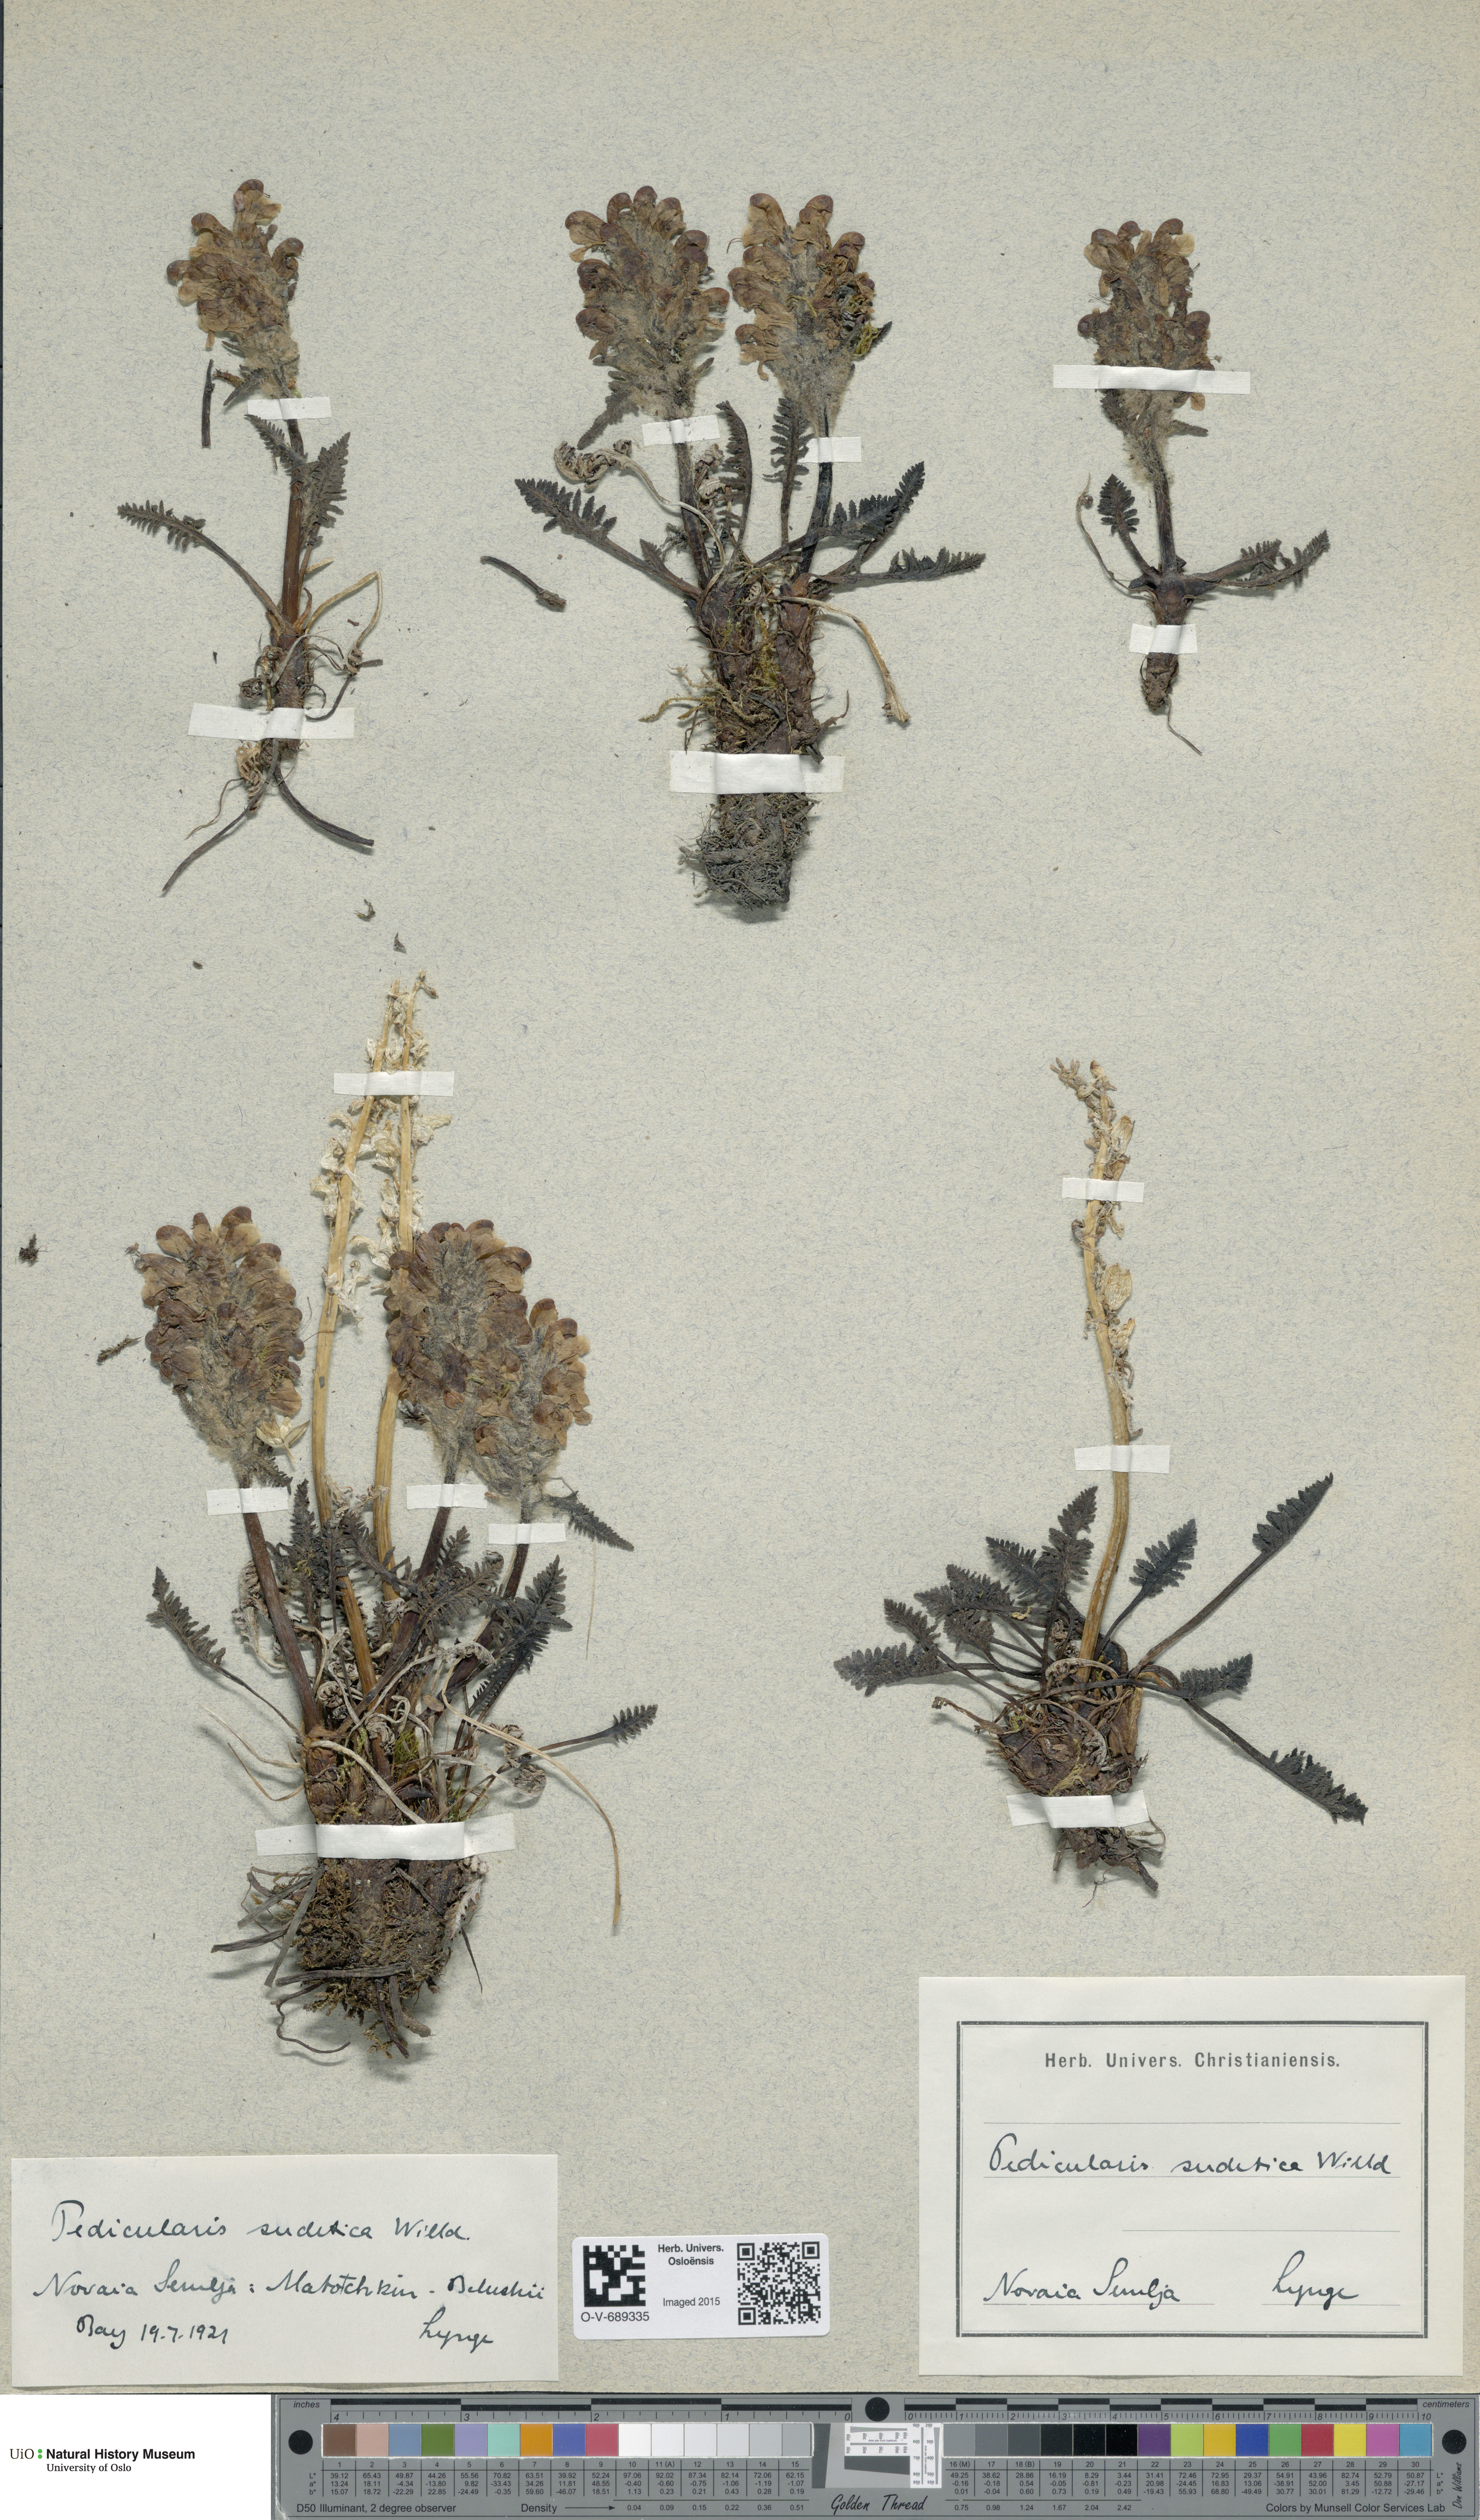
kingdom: Plantae
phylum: Tracheophyta
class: Magnoliopsida
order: Lamiales
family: Orobanchaceae
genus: Pedicularis
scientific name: Pedicularis sudetica
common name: Sudeten lousewort
